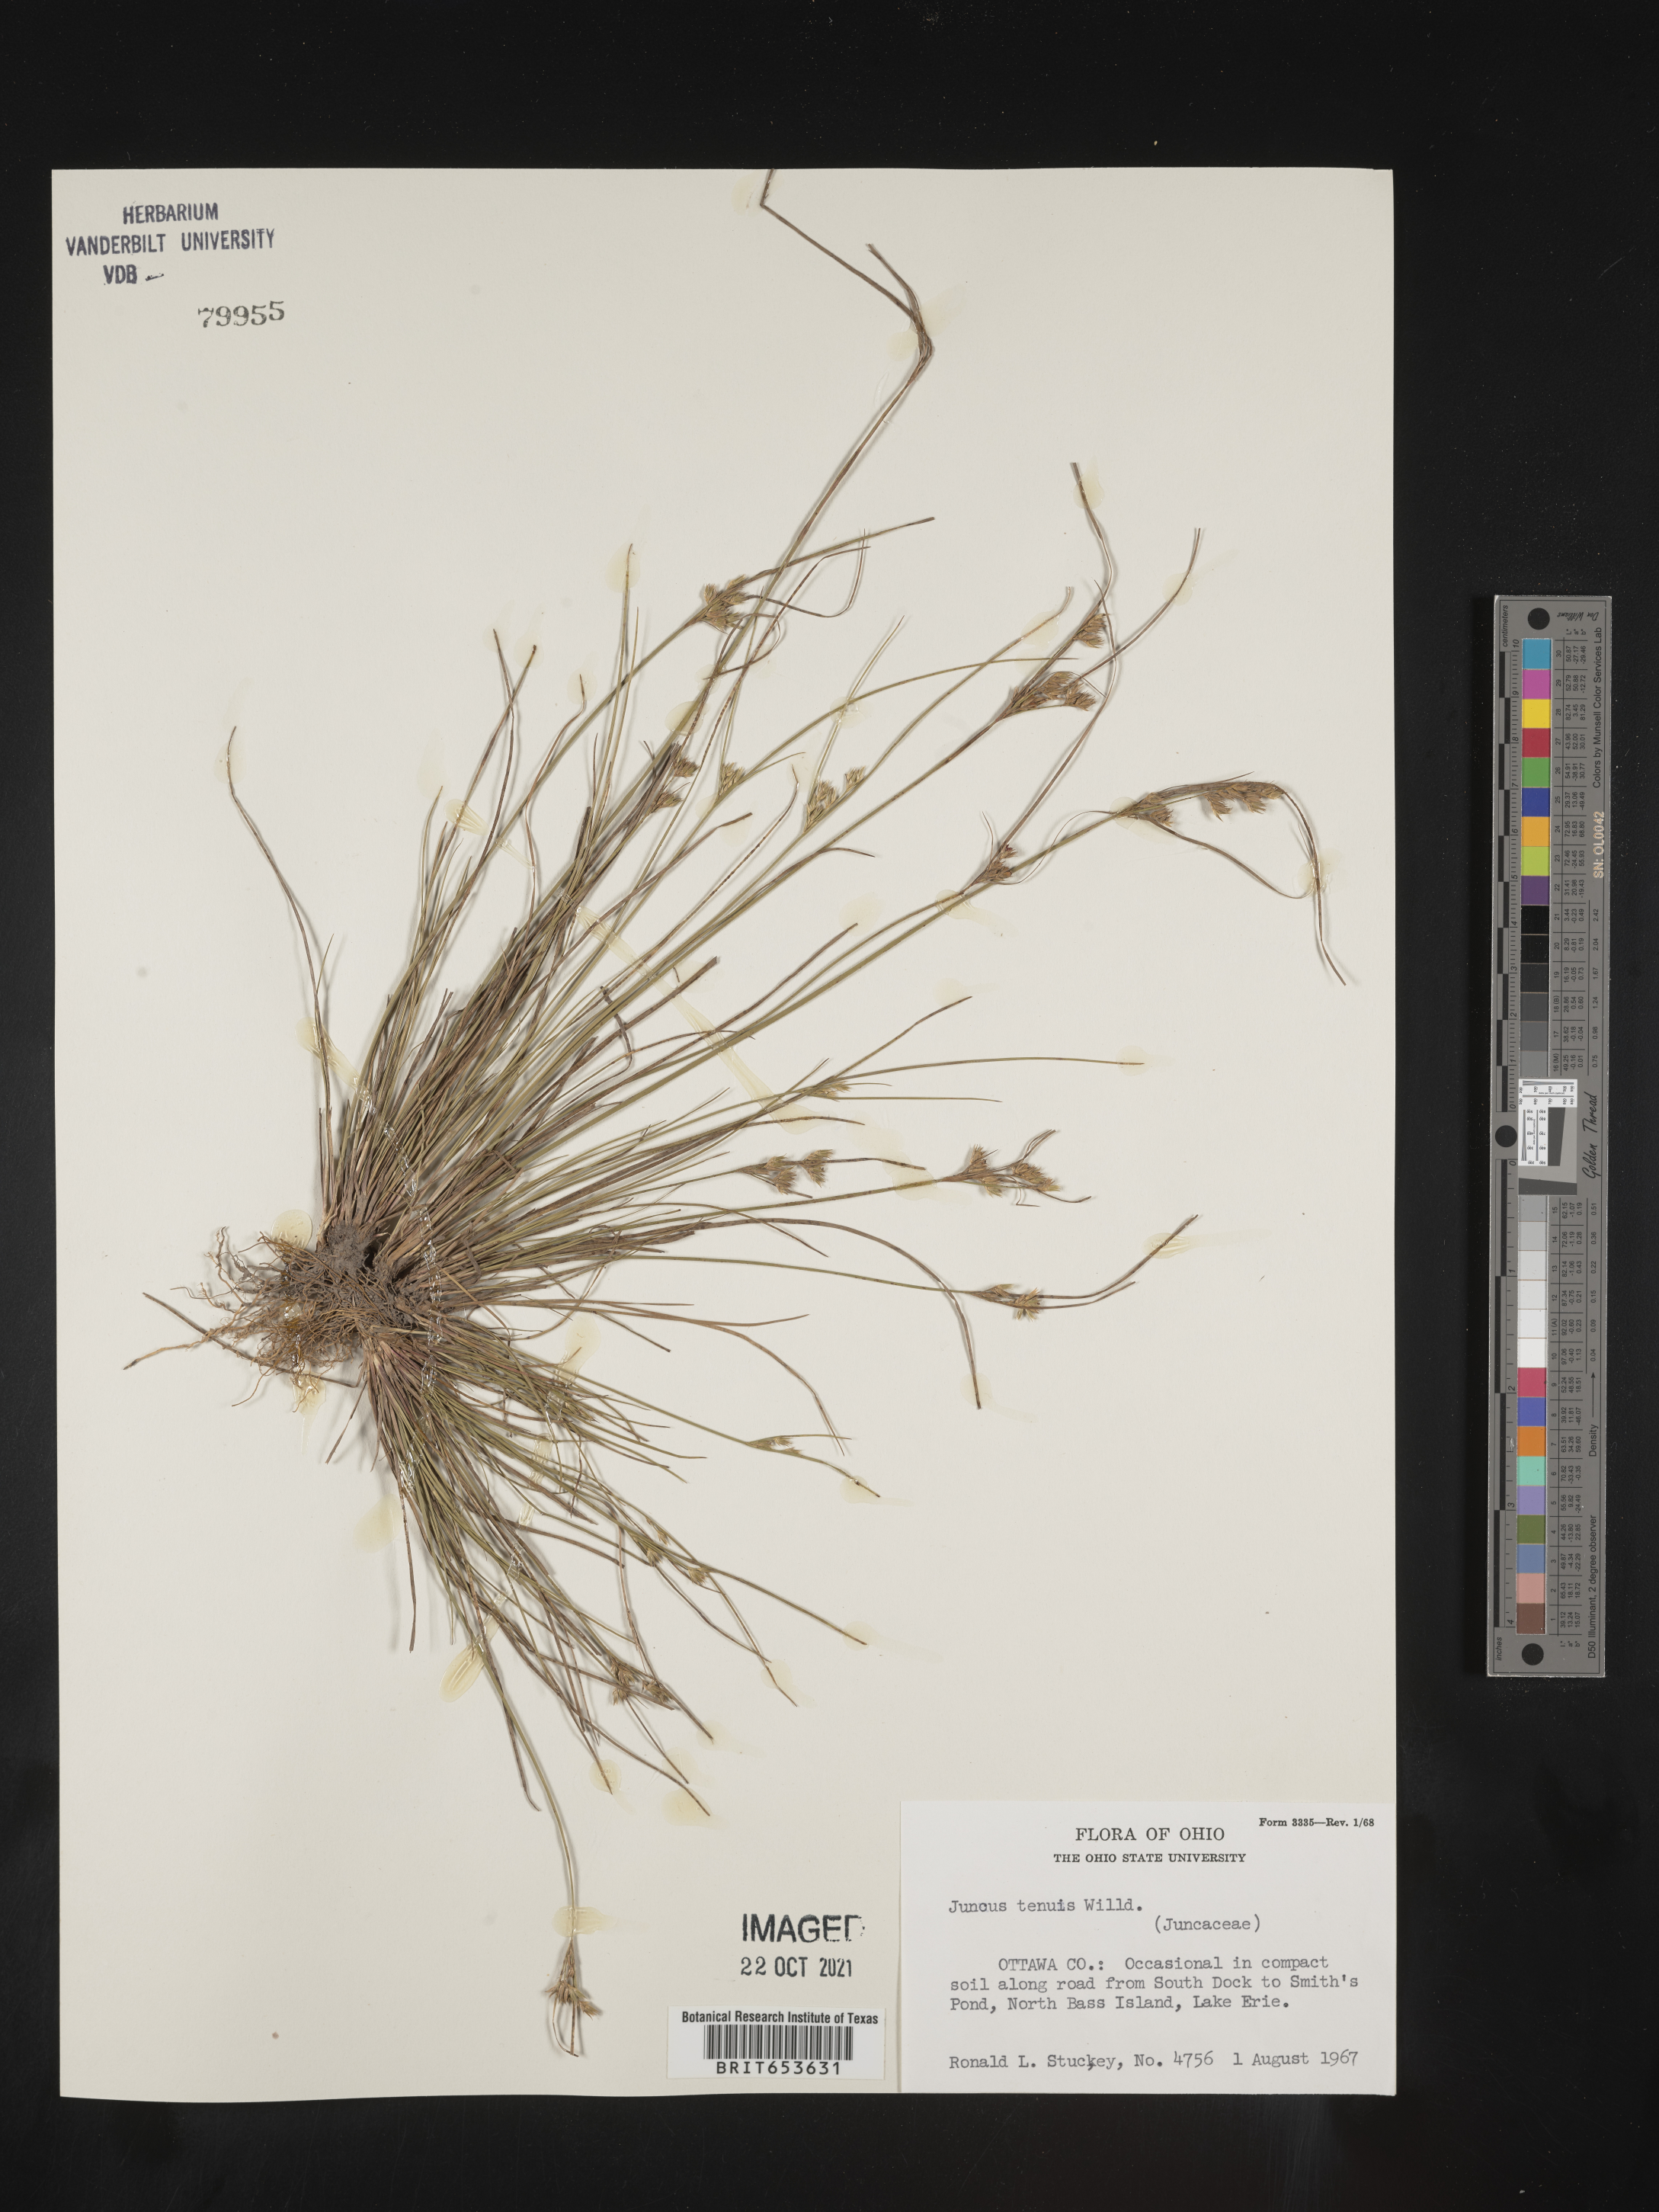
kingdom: Plantae
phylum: Tracheophyta
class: Liliopsida
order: Poales
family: Juncaceae
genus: Juncus
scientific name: Juncus tenuis
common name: Slender rush
